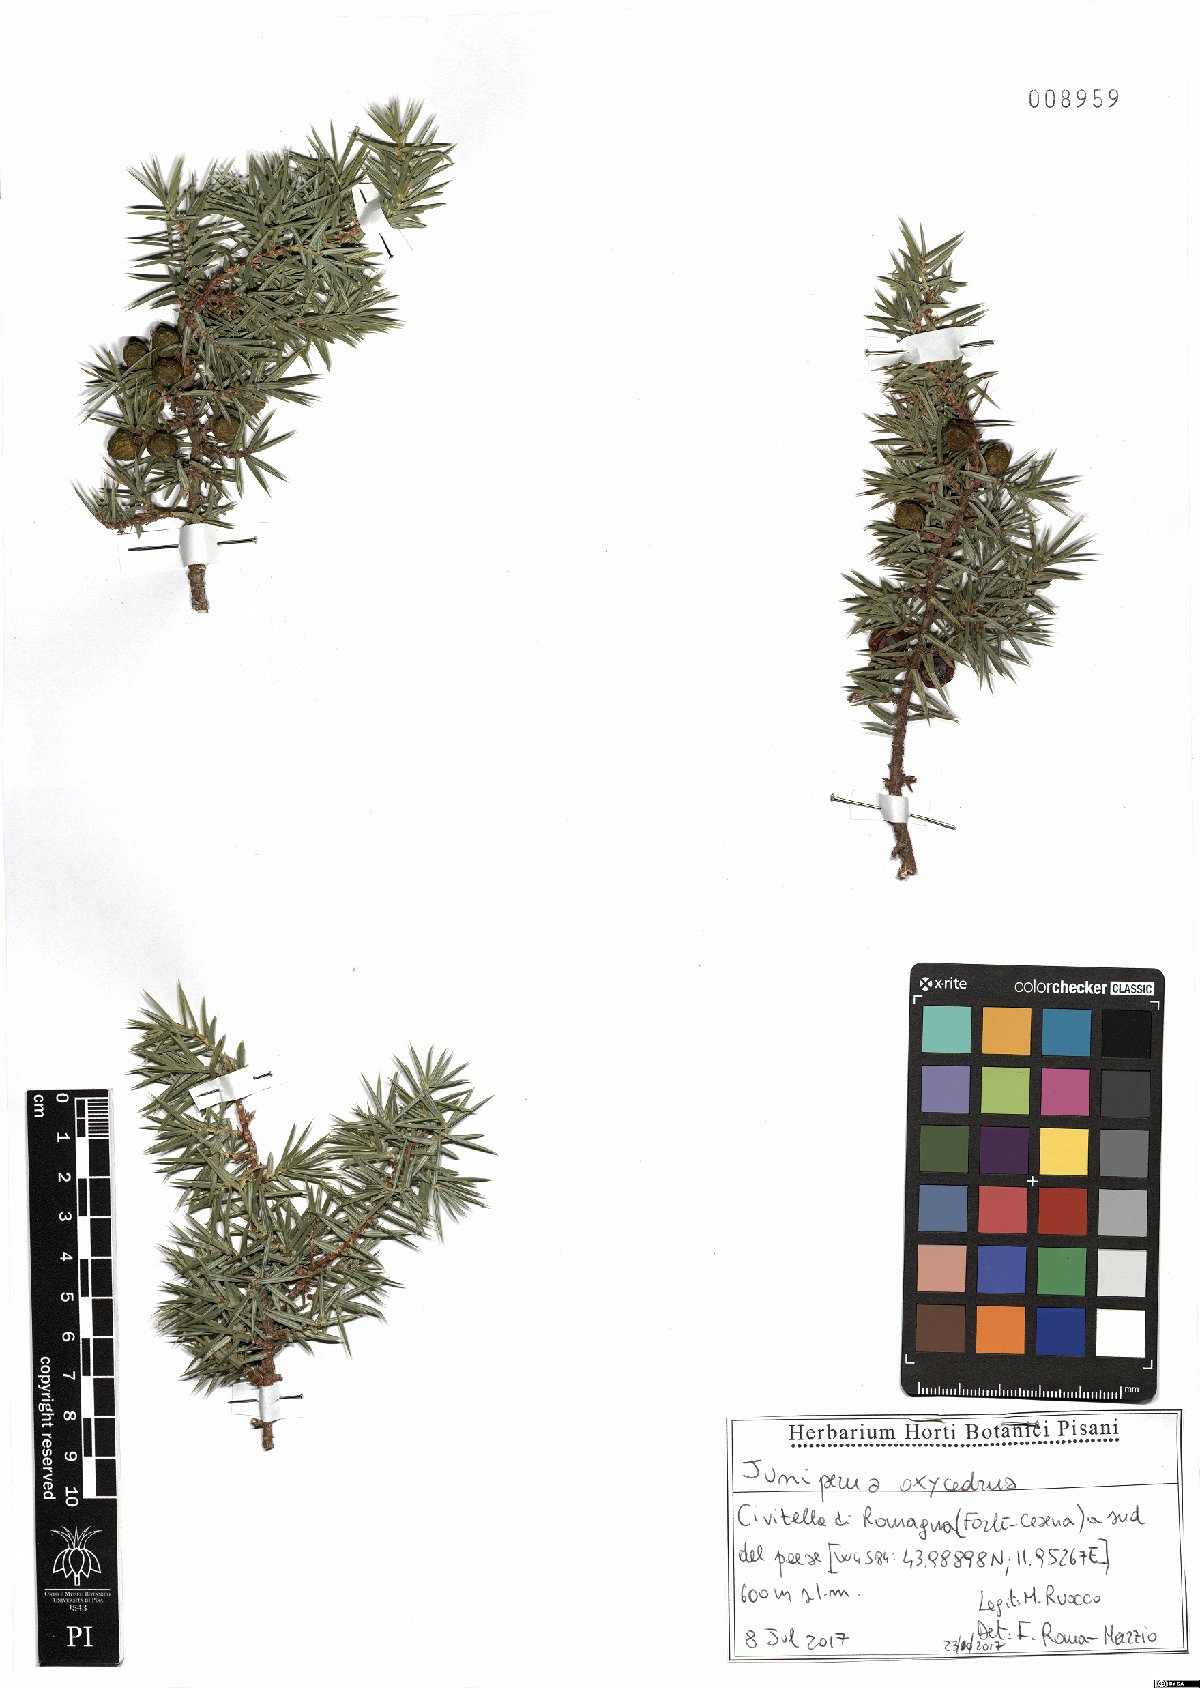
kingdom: Plantae
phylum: Tracheophyta
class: Pinopsida
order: Pinales
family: Cupressaceae
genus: Juniperus
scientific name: Juniperus oxycedrus
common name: Prickly juniper
